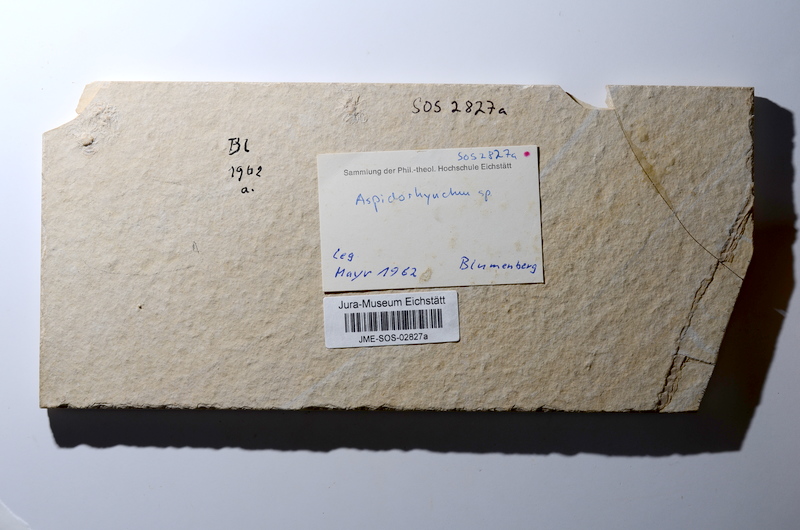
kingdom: Animalia
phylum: Chordata
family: Aspidorhynchidae
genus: Aspidorhynchus
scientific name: Aspidorhynchus acutirostris
